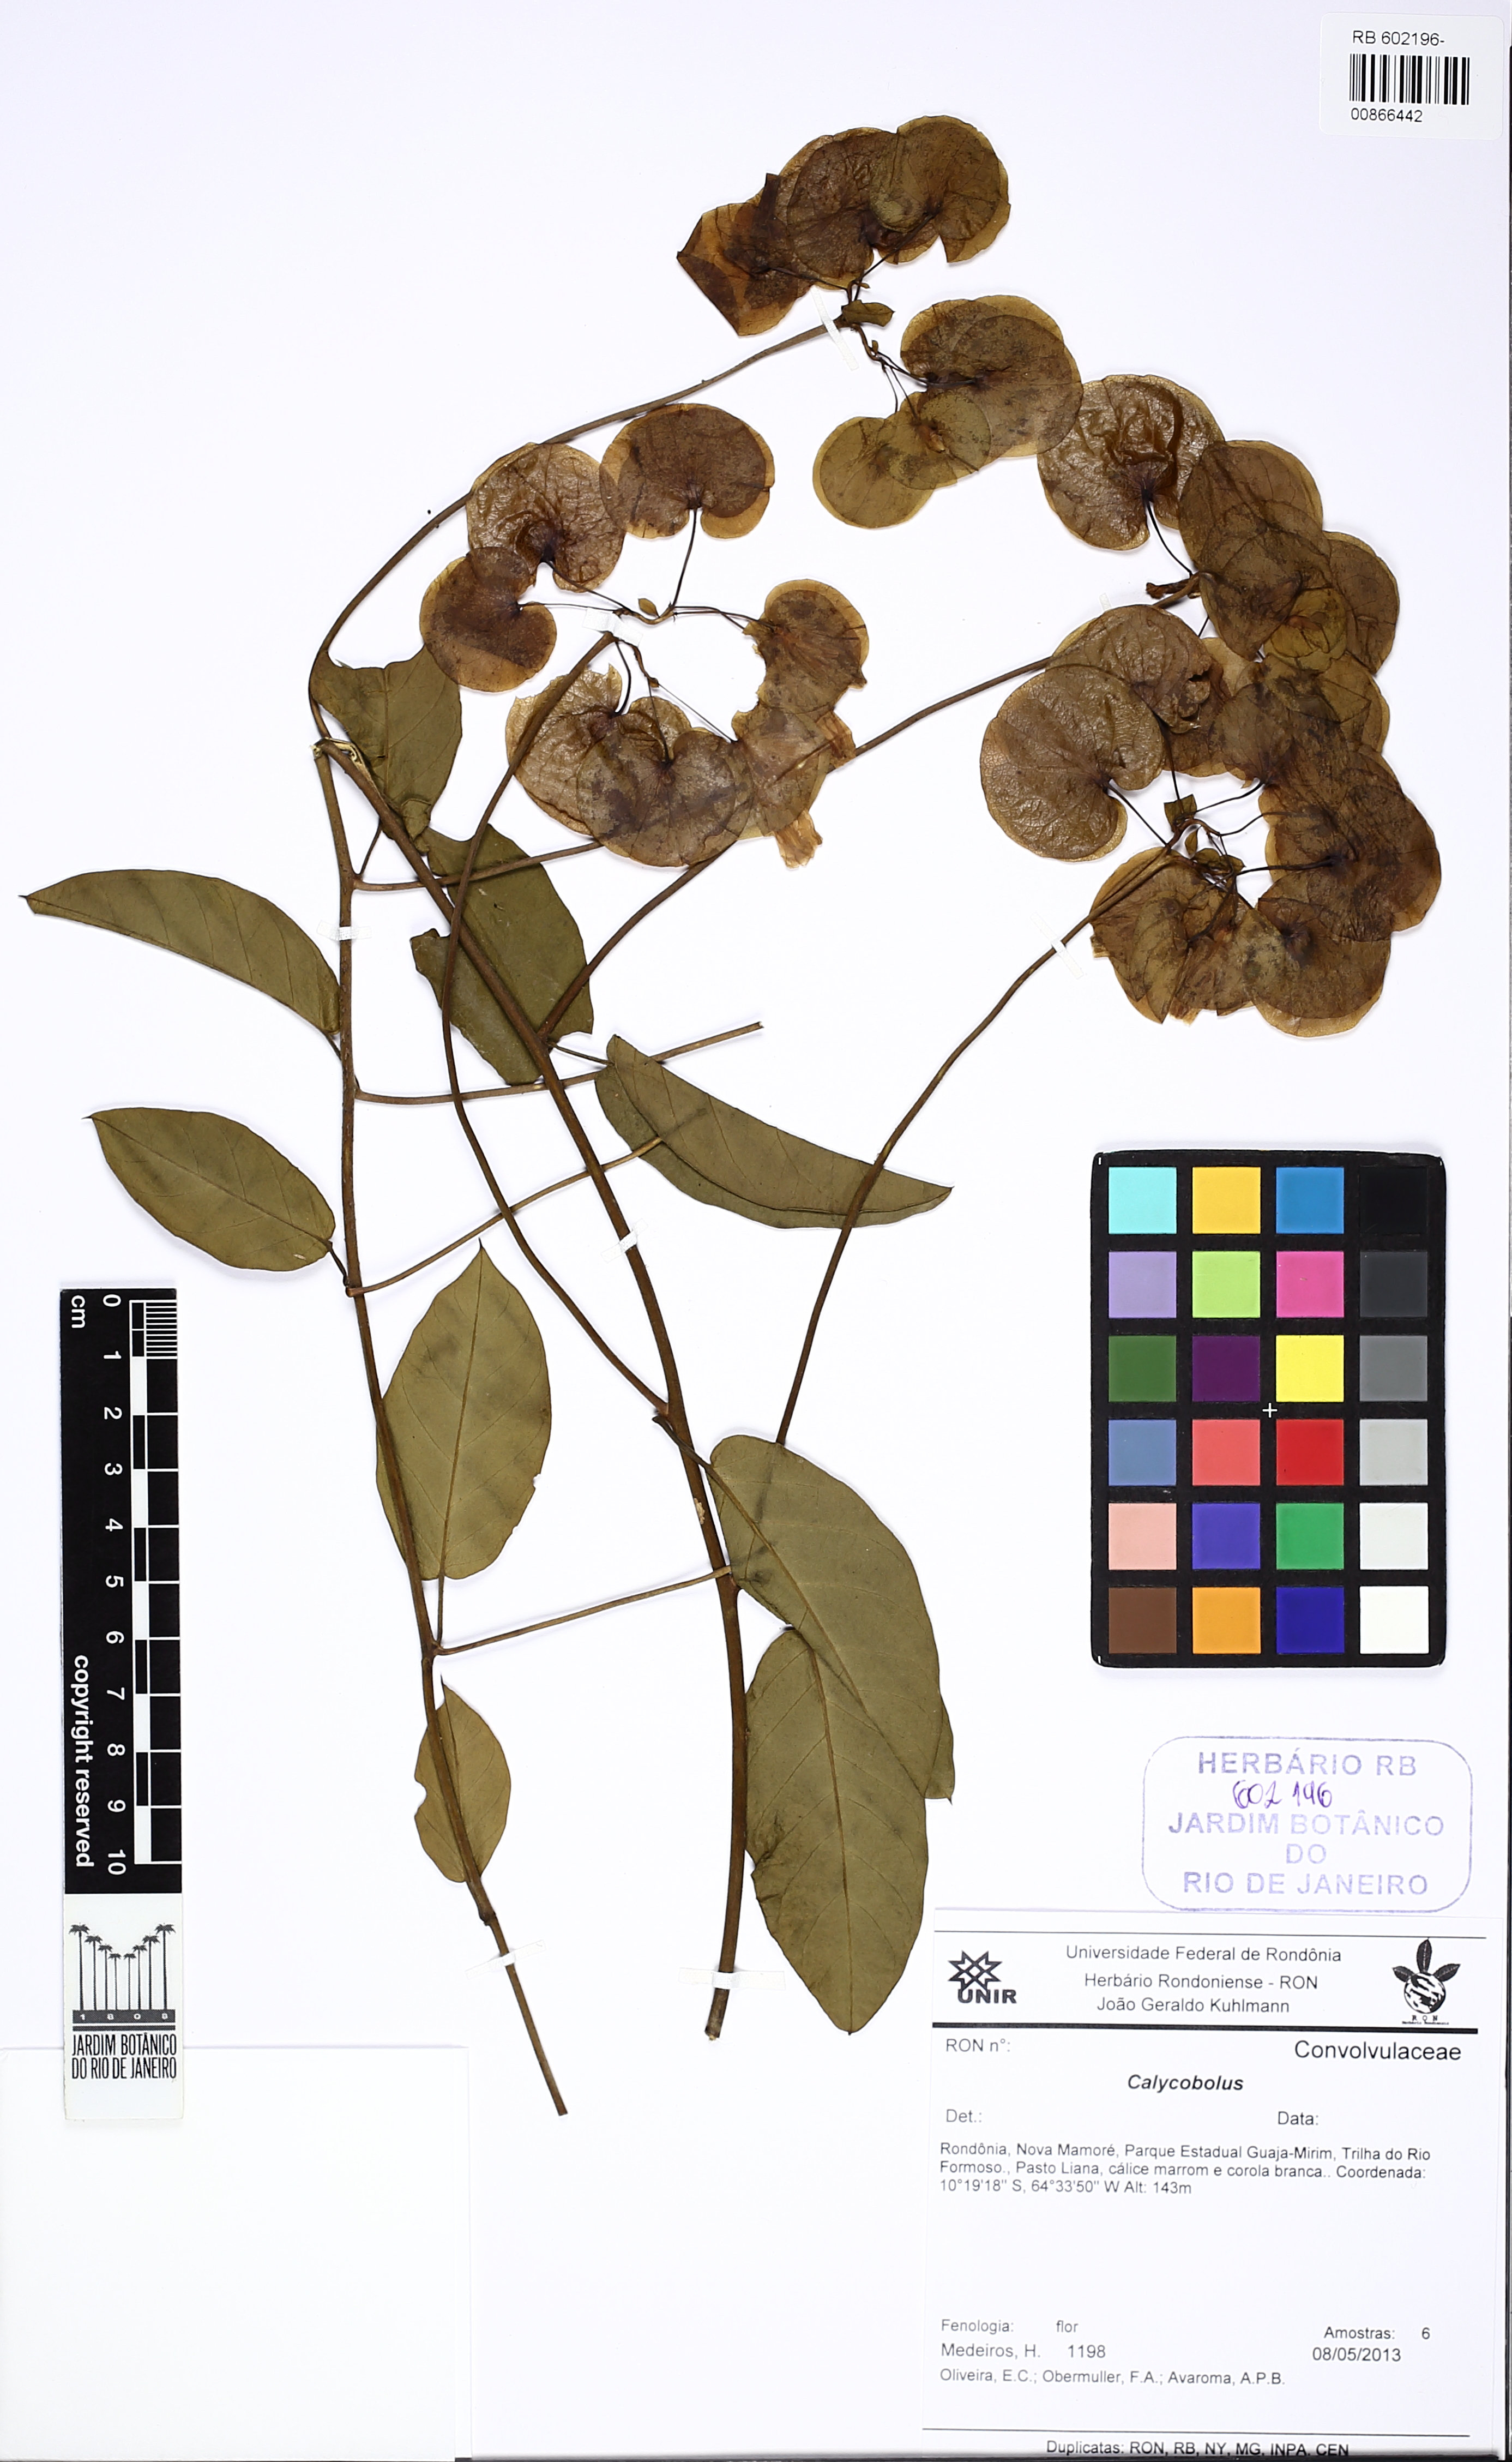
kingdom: Plantae
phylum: Tracheophyta
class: Magnoliopsida
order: Solanales
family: Convolvulaceae
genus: Calycobolus
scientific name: Calycobolus glaber
